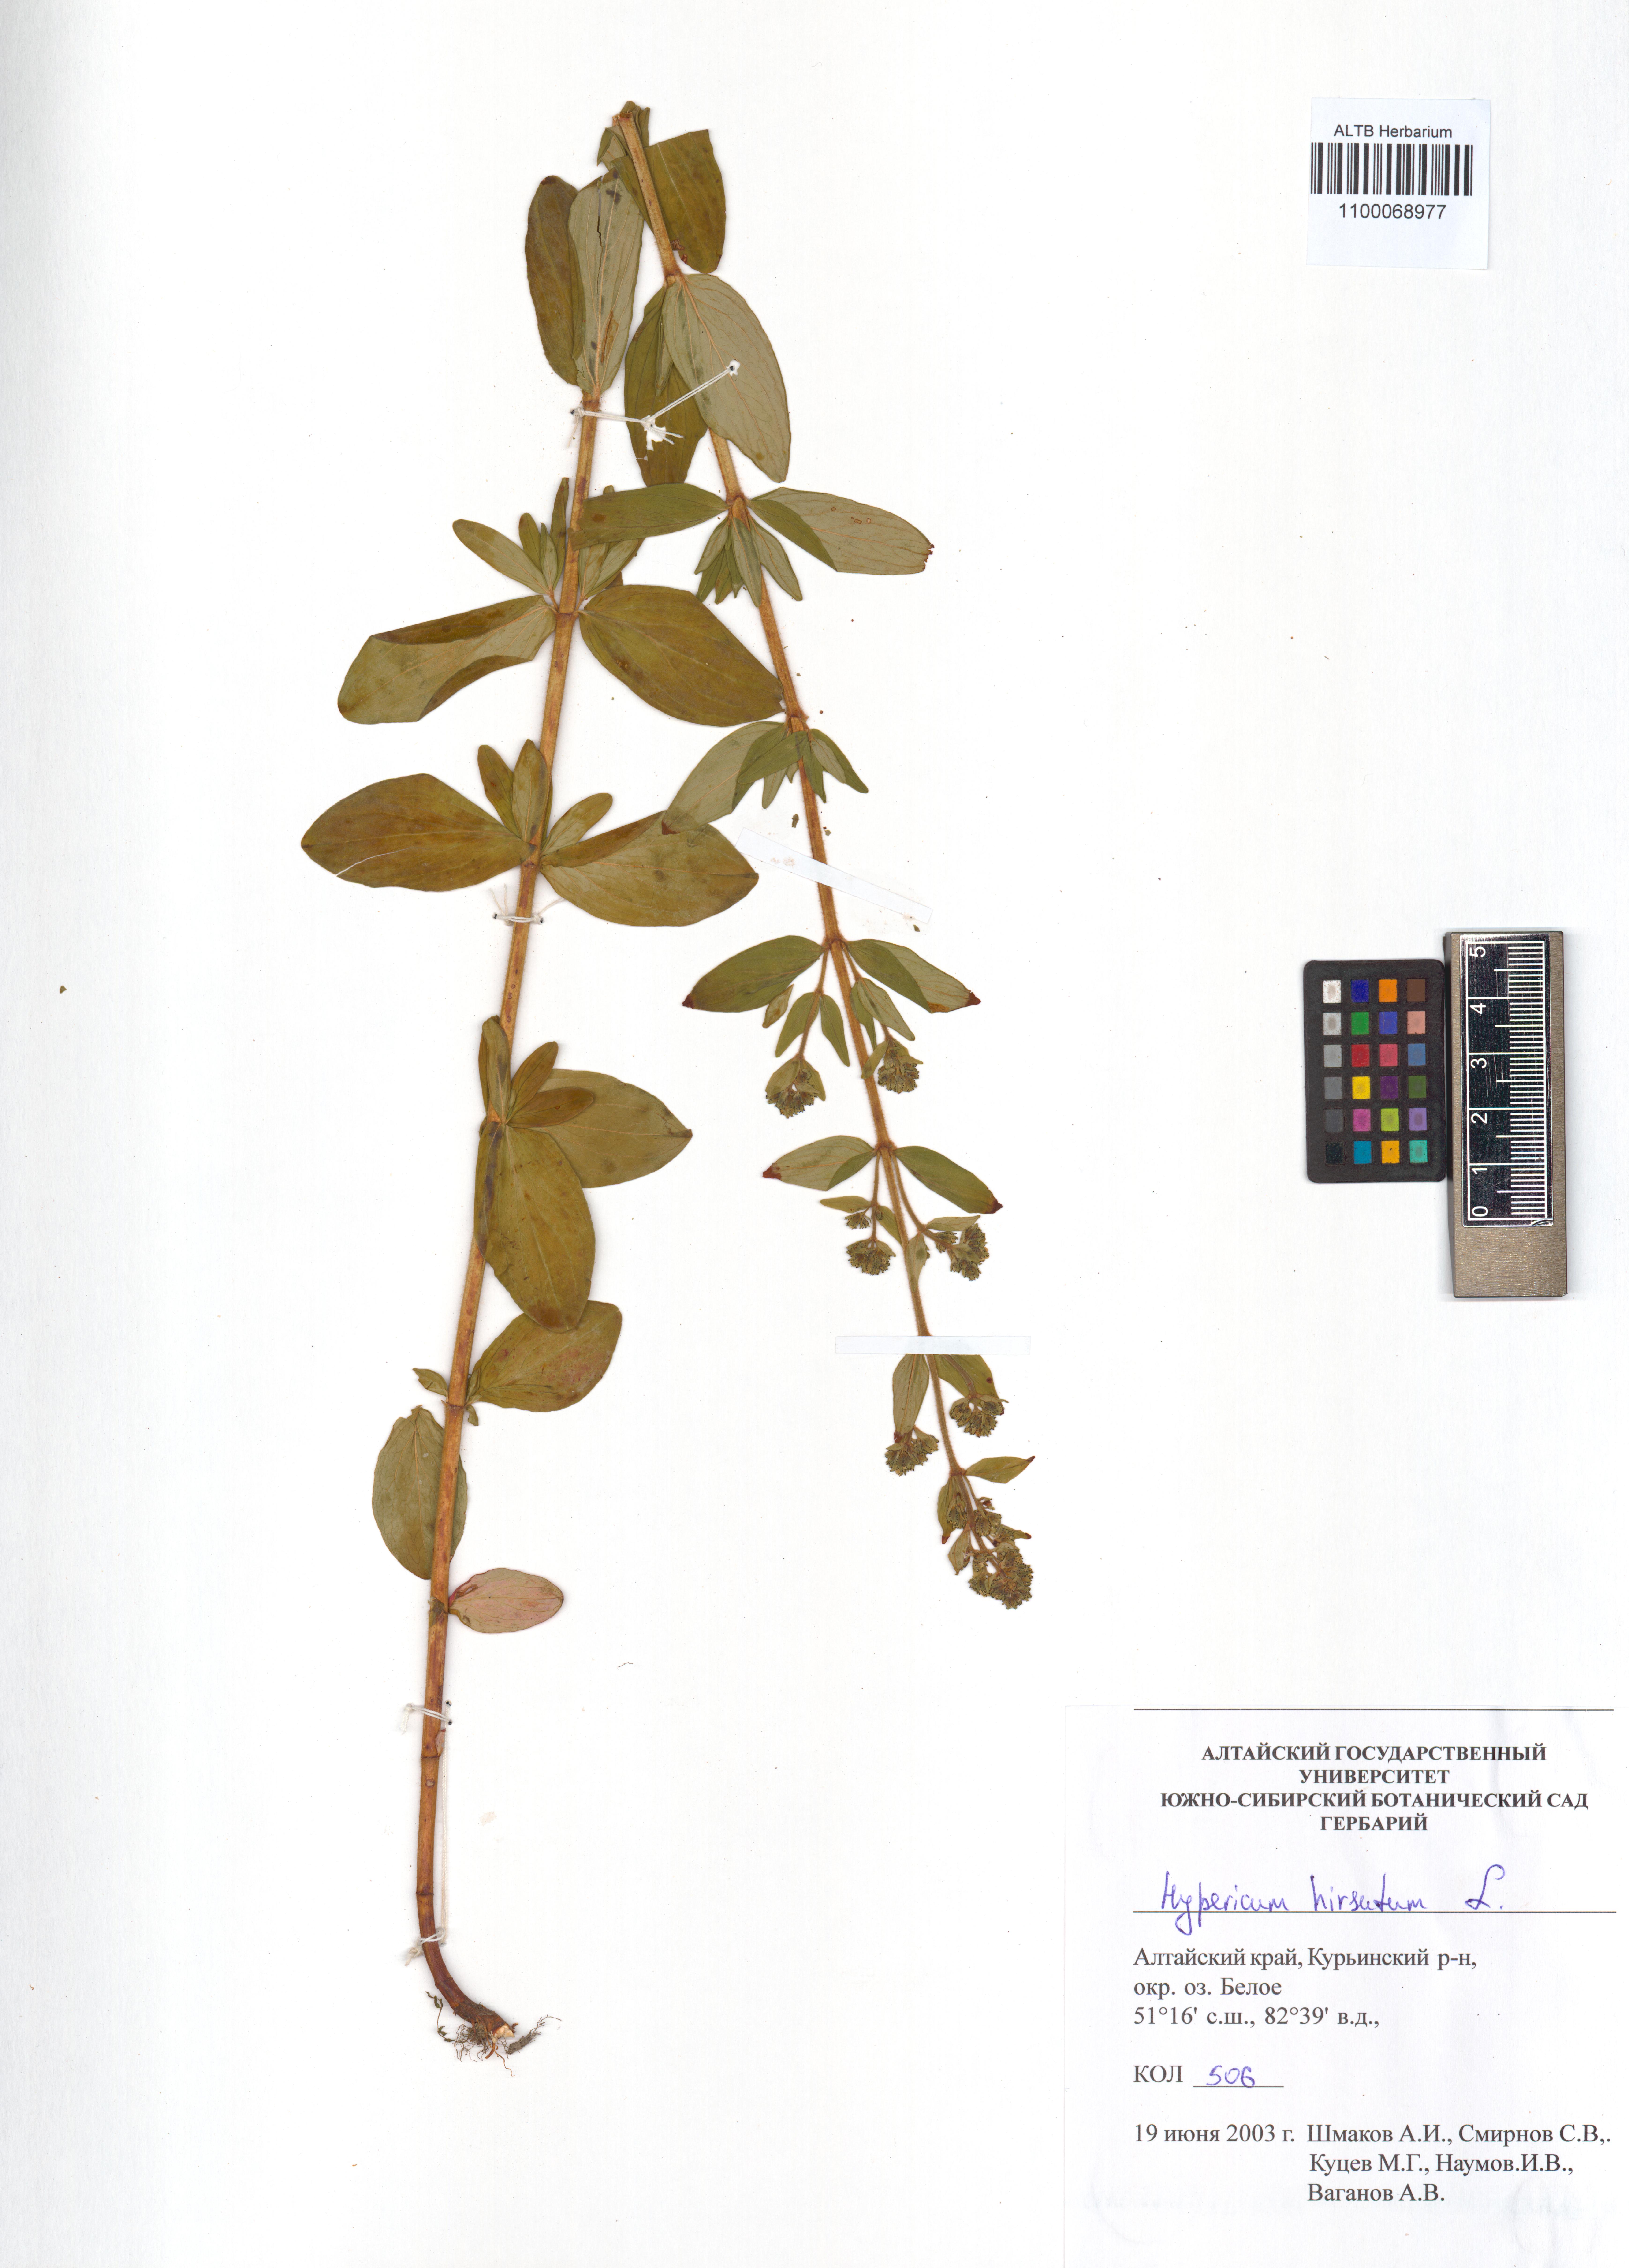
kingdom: Plantae
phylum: Tracheophyta
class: Magnoliopsida
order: Malpighiales
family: Hypericaceae
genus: Hypericum
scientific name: Hypericum hirsutum
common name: Hairy st. john's-wort
